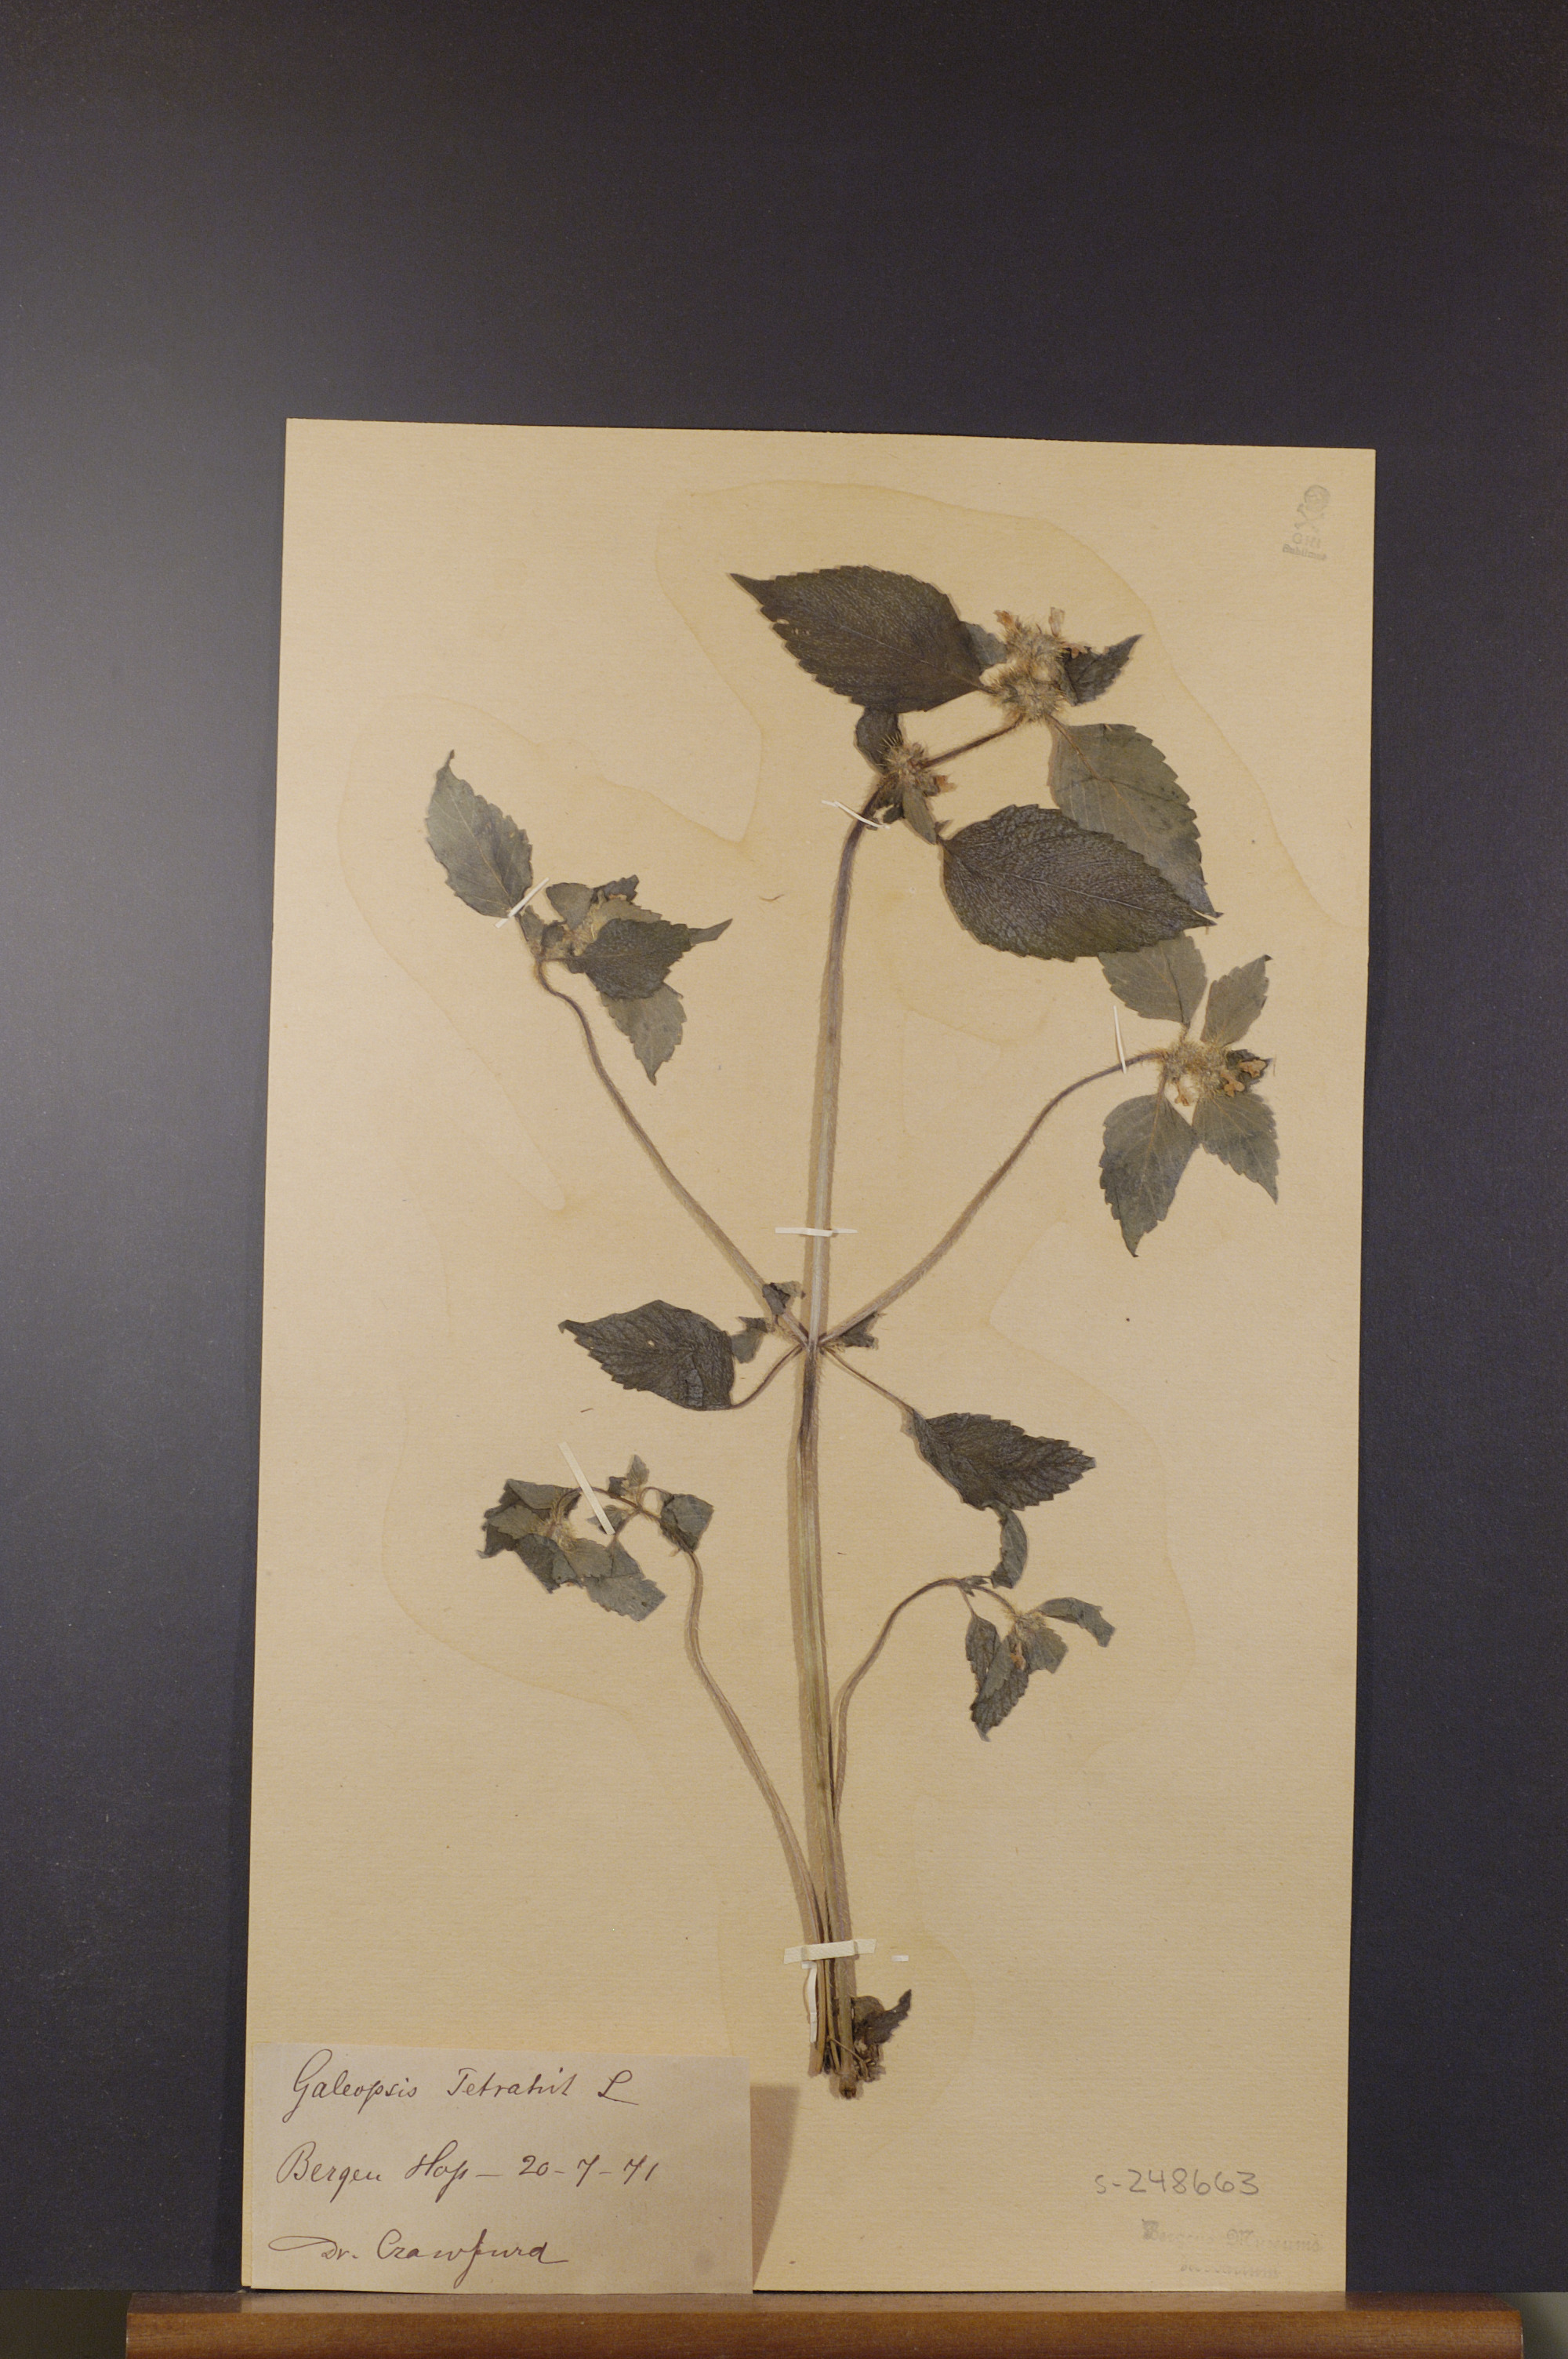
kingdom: Plantae
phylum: Tracheophyta
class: Magnoliopsida
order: Lamiales
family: Lamiaceae
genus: Galeopsis
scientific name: Galeopsis tetrahit
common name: Common hemp-nettle
